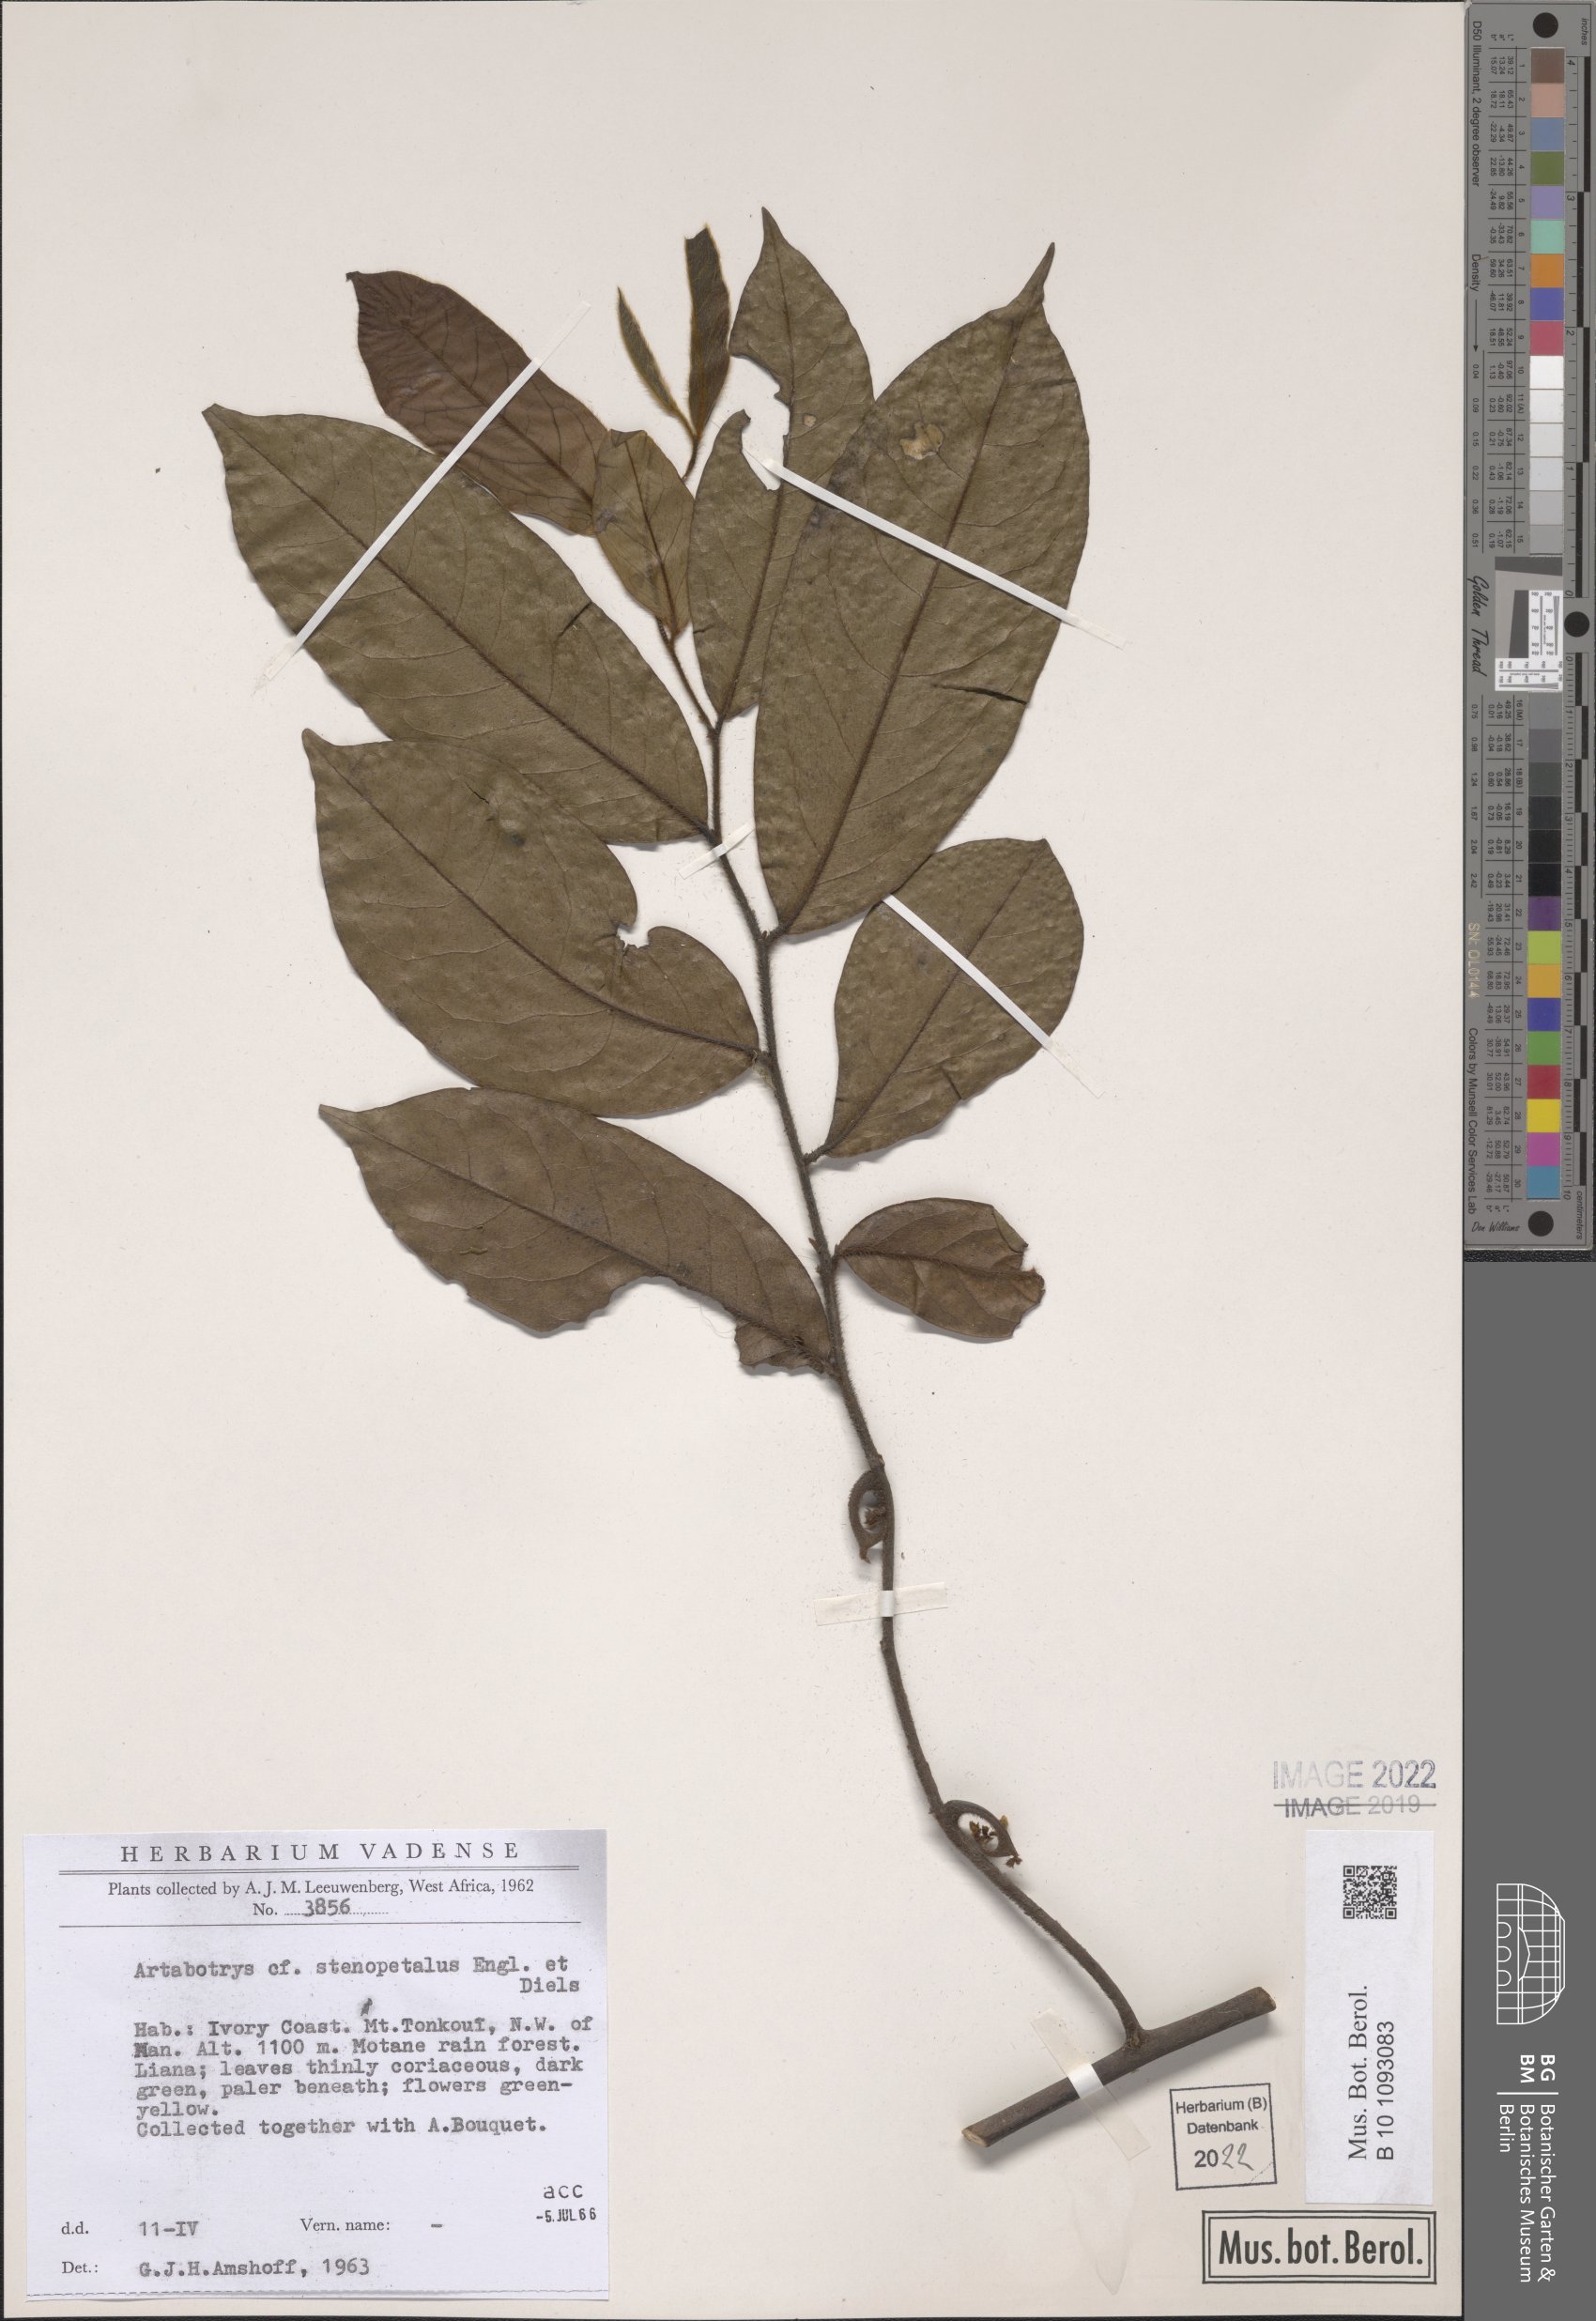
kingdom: Plantae
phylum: Tracheophyta
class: Magnoliopsida
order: Magnoliales
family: Annonaceae
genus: Artabotrys
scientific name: Artabotrys stenopetalus
